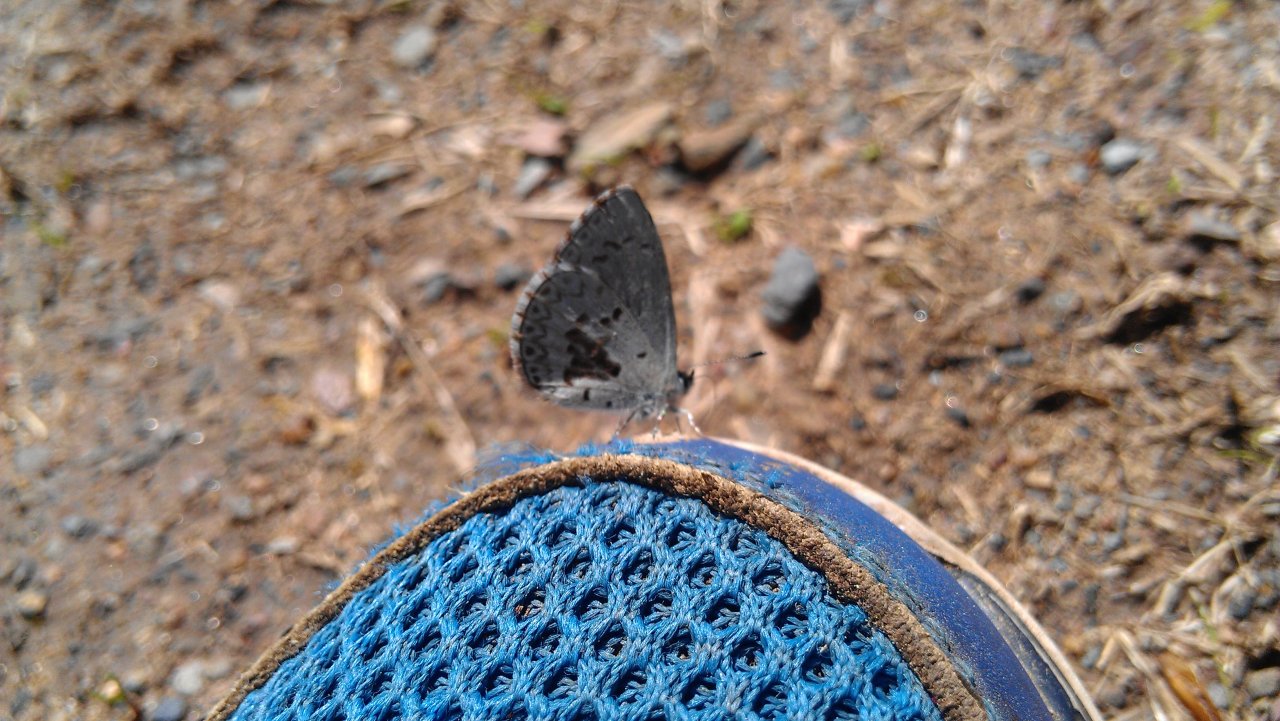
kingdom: Animalia
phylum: Arthropoda
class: Insecta
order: Lepidoptera
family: Lycaenidae
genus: Celastrina
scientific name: Celastrina lucia
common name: Northern Spring Azure
